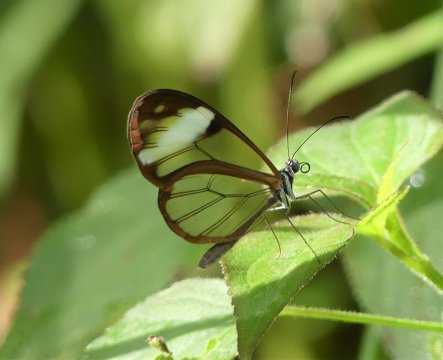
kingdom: Animalia
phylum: Arthropoda
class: Insecta
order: Lepidoptera
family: Nymphalidae
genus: Greta
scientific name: Greta andromica
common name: Andromica Clearwing
